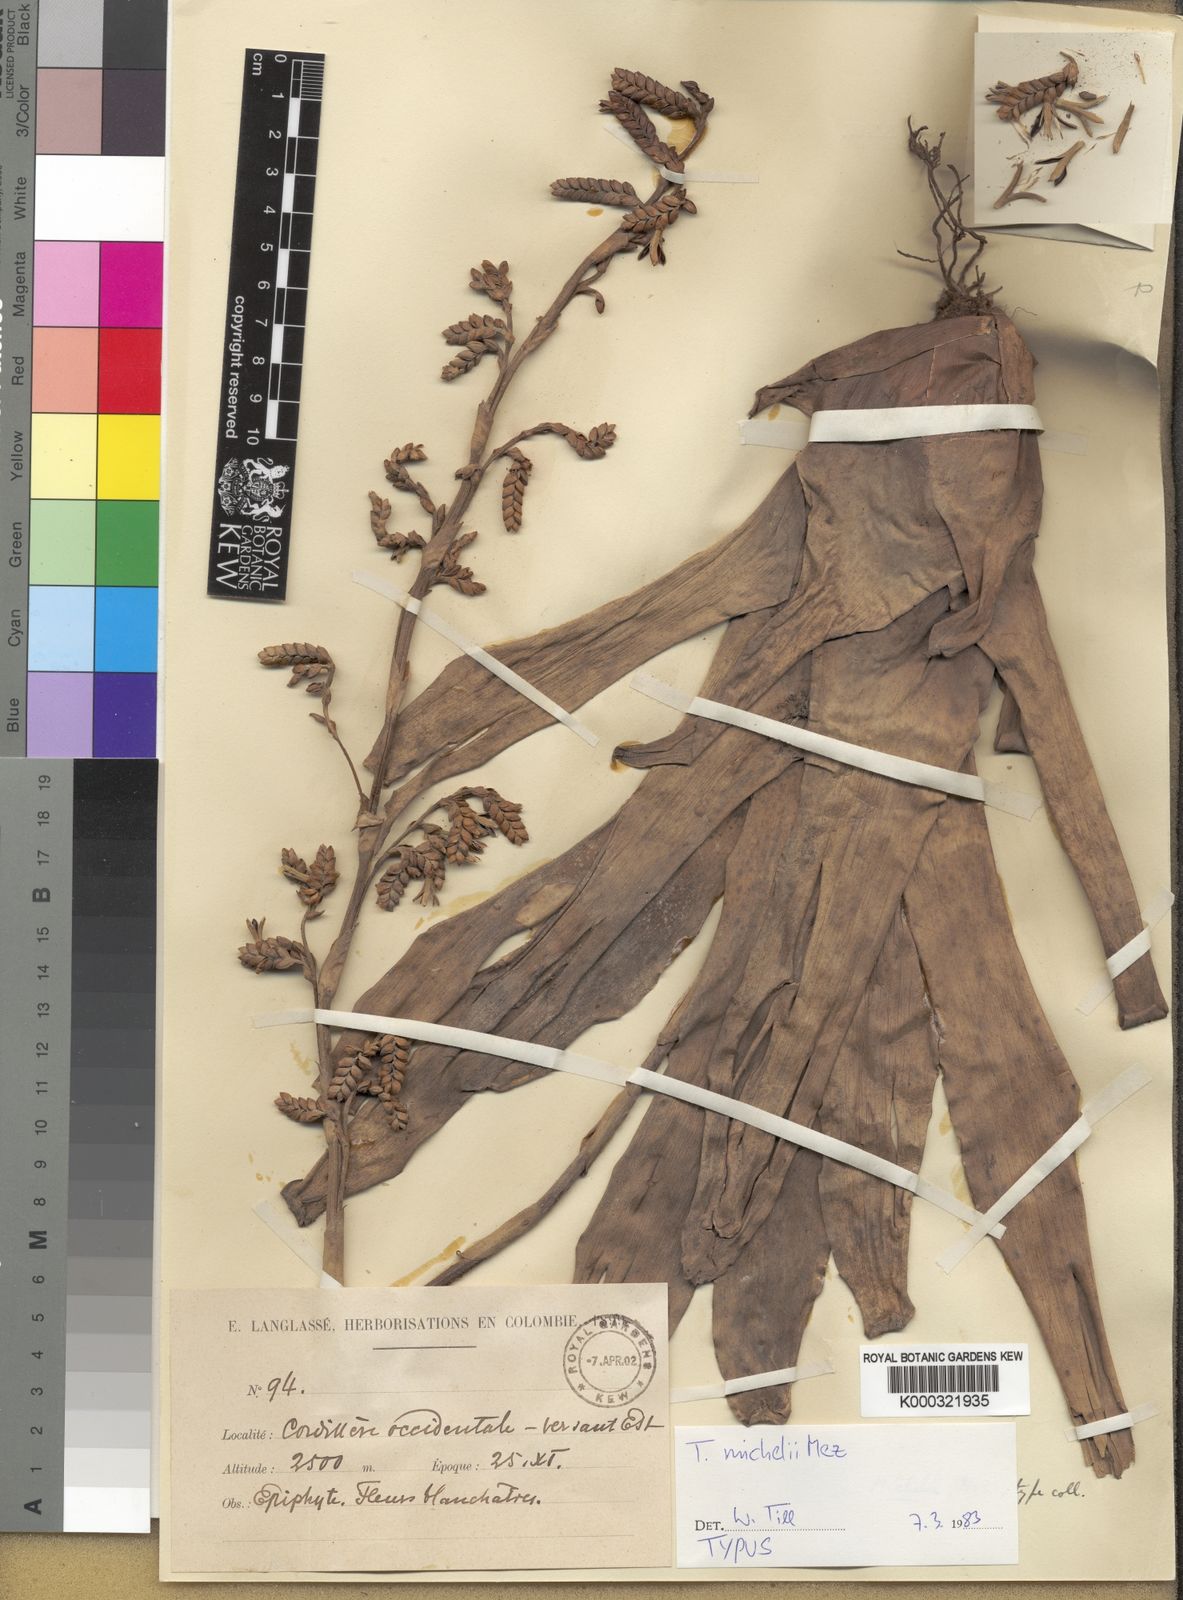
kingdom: Plantae
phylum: Tracheophyta
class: Liliopsida
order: Poales
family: Bromeliaceae
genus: Racinaea
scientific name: Racinaea michelii
